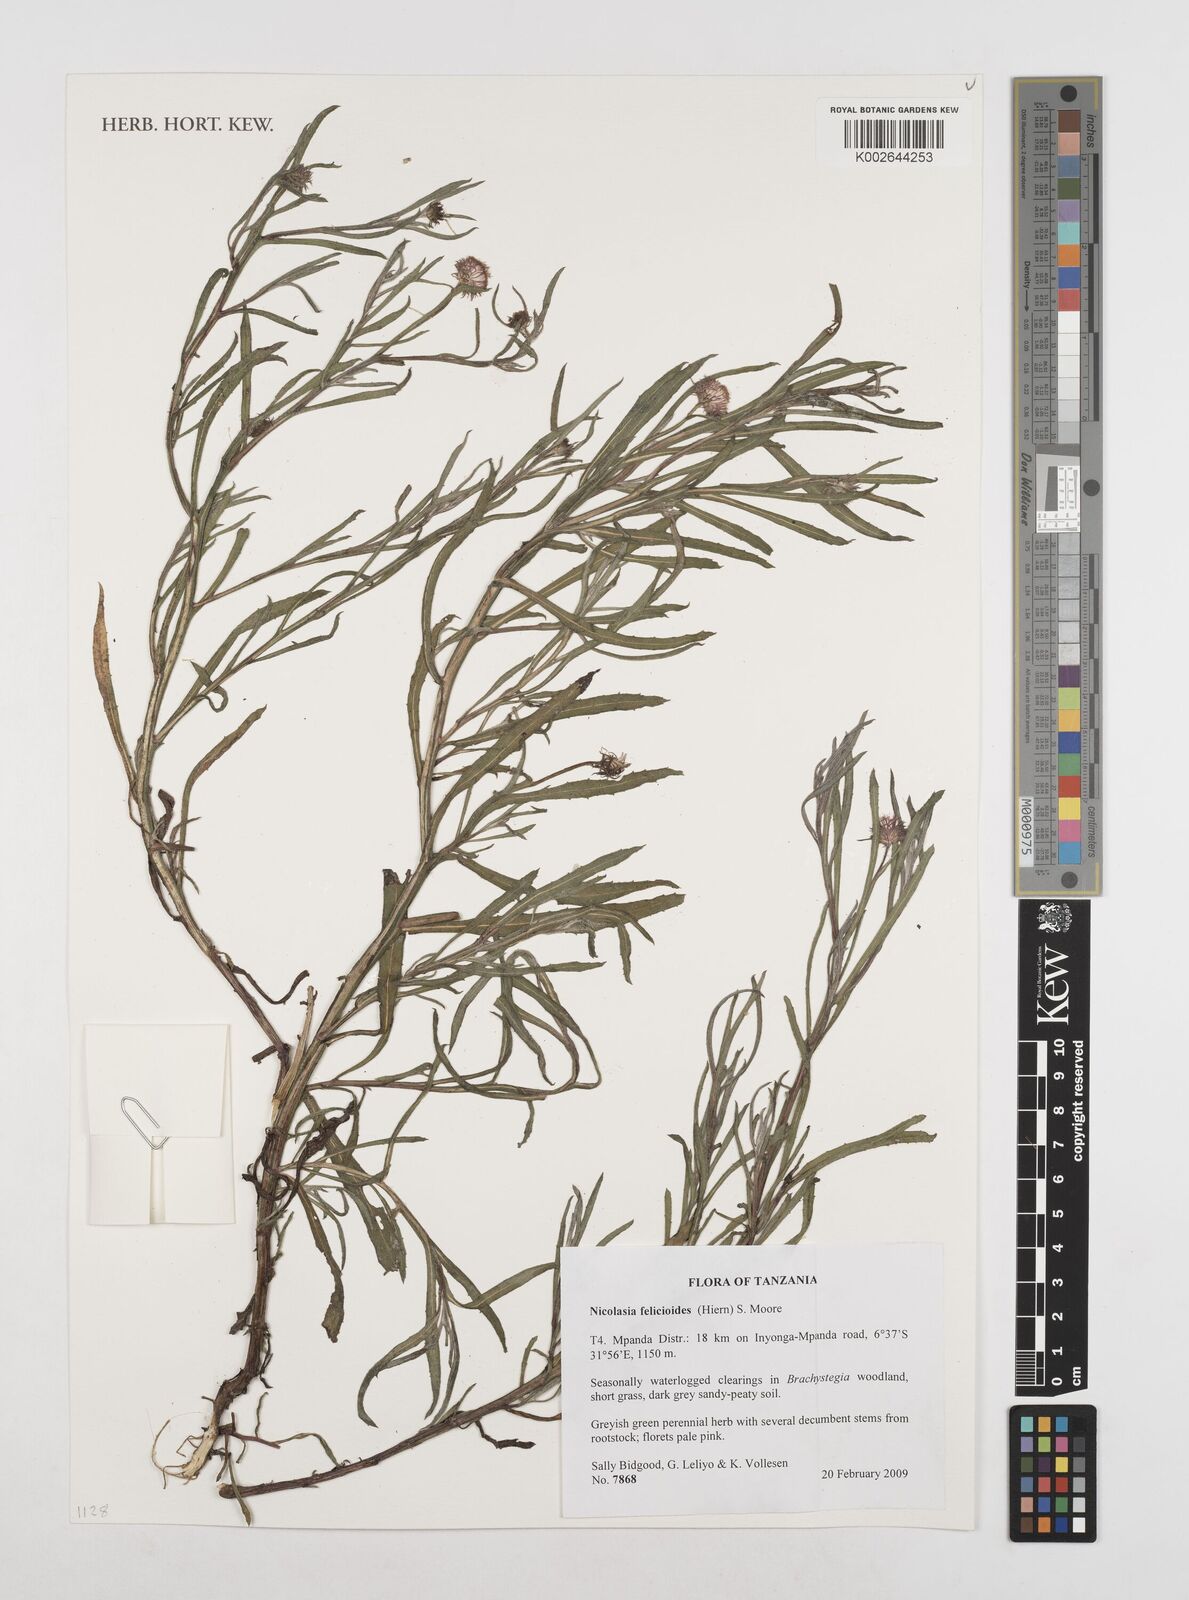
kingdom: Plantae
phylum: Tracheophyta
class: Magnoliopsida
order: Asterales
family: Asteraceae
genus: Nicolasia
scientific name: Nicolasia felicioides
